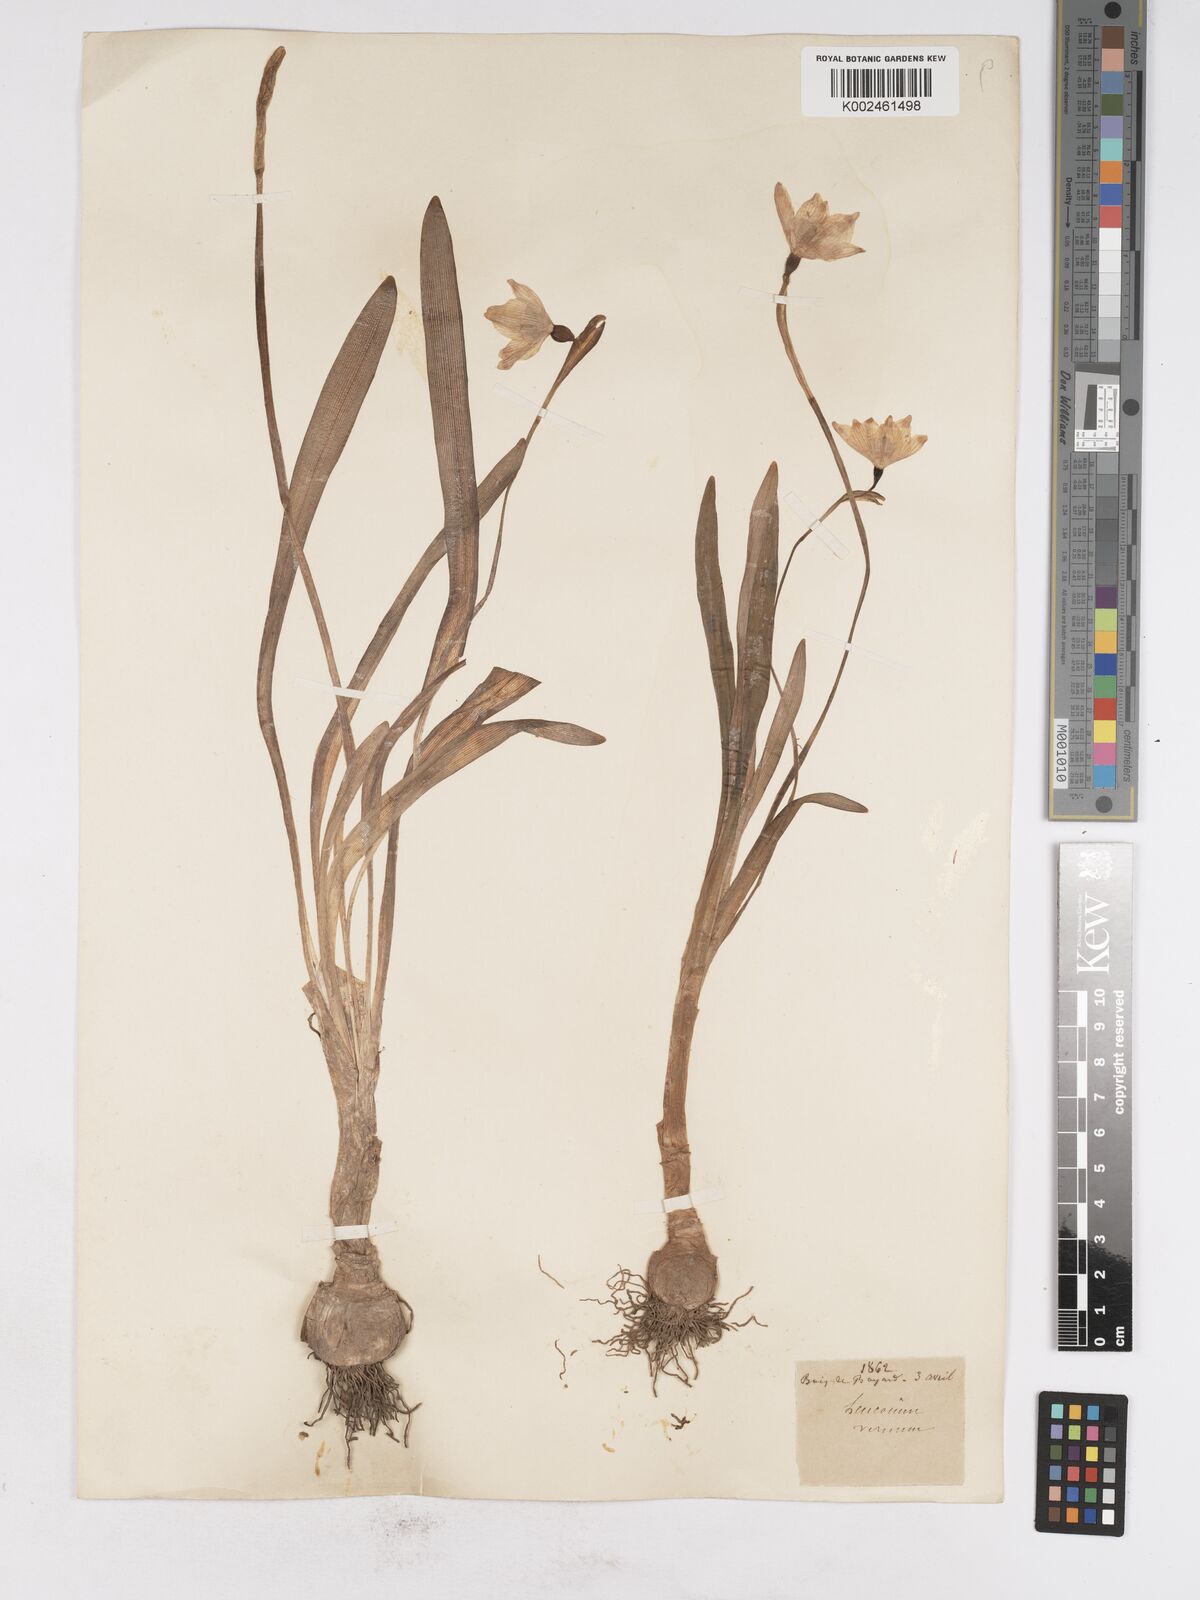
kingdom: Plantae
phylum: Tracheophyta
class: Liliopsida
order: Asparagales
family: Amaryllidaceae
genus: Leucojum
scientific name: Leucojum vernum
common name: Spring snowflake
